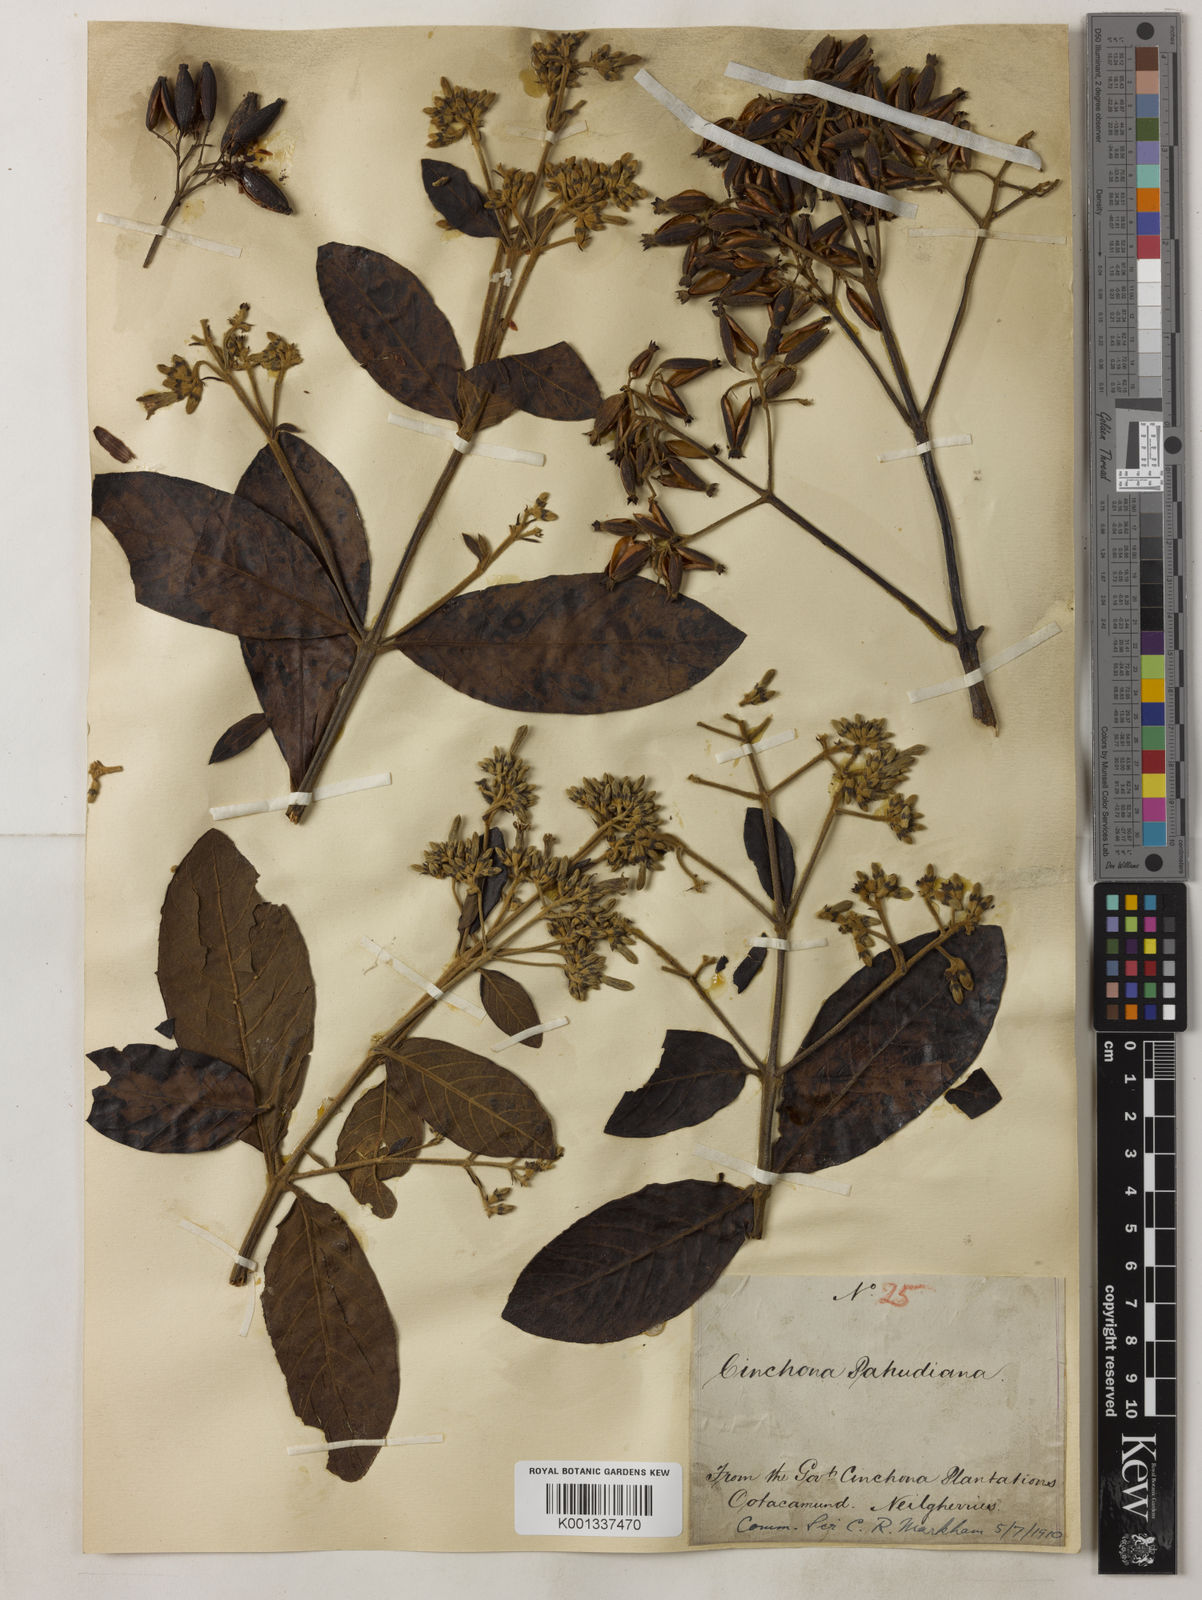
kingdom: Plantae
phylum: Tracheophyta
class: Magnoliopsida
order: Gentianales
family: Rubiaceae
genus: Cinchona
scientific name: Cinchona calisaya
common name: Ledgerbark
